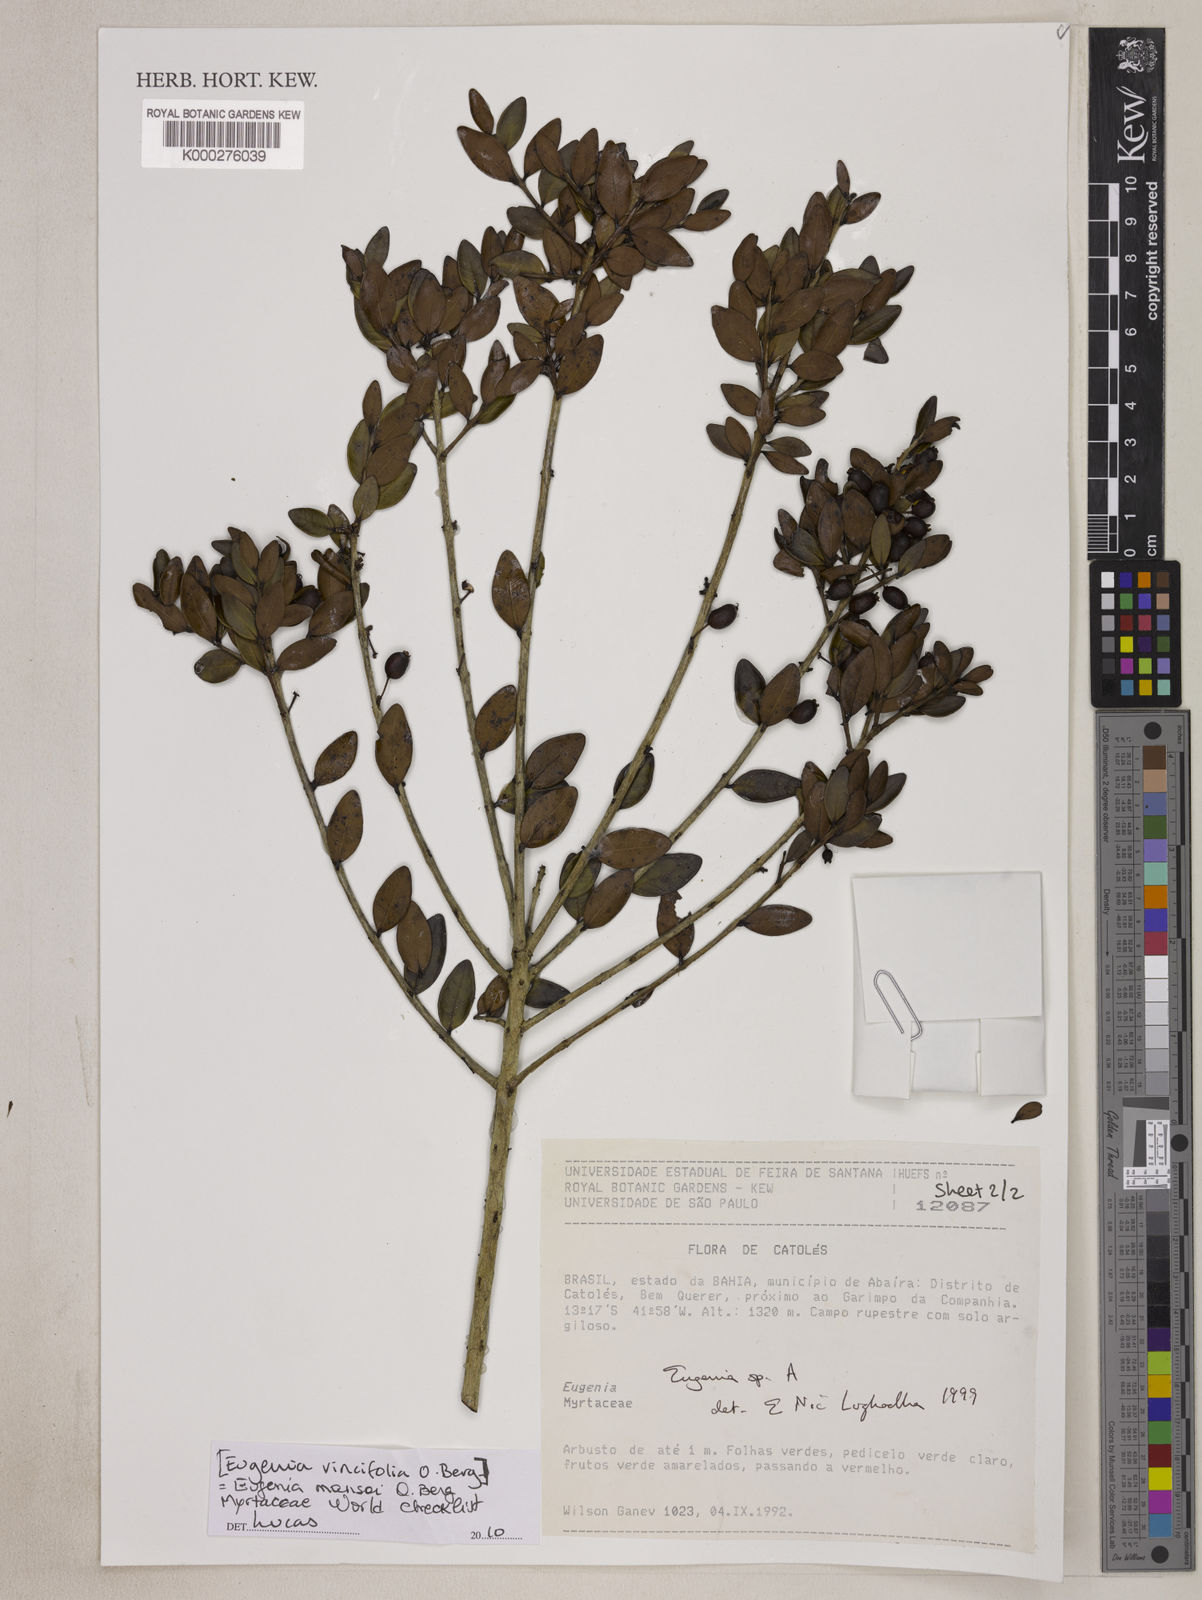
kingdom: Plantae
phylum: Tracheophyta
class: Magnoliopsida
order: Myrtales
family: Myrtaceae
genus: Eugenia
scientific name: Eugenia
